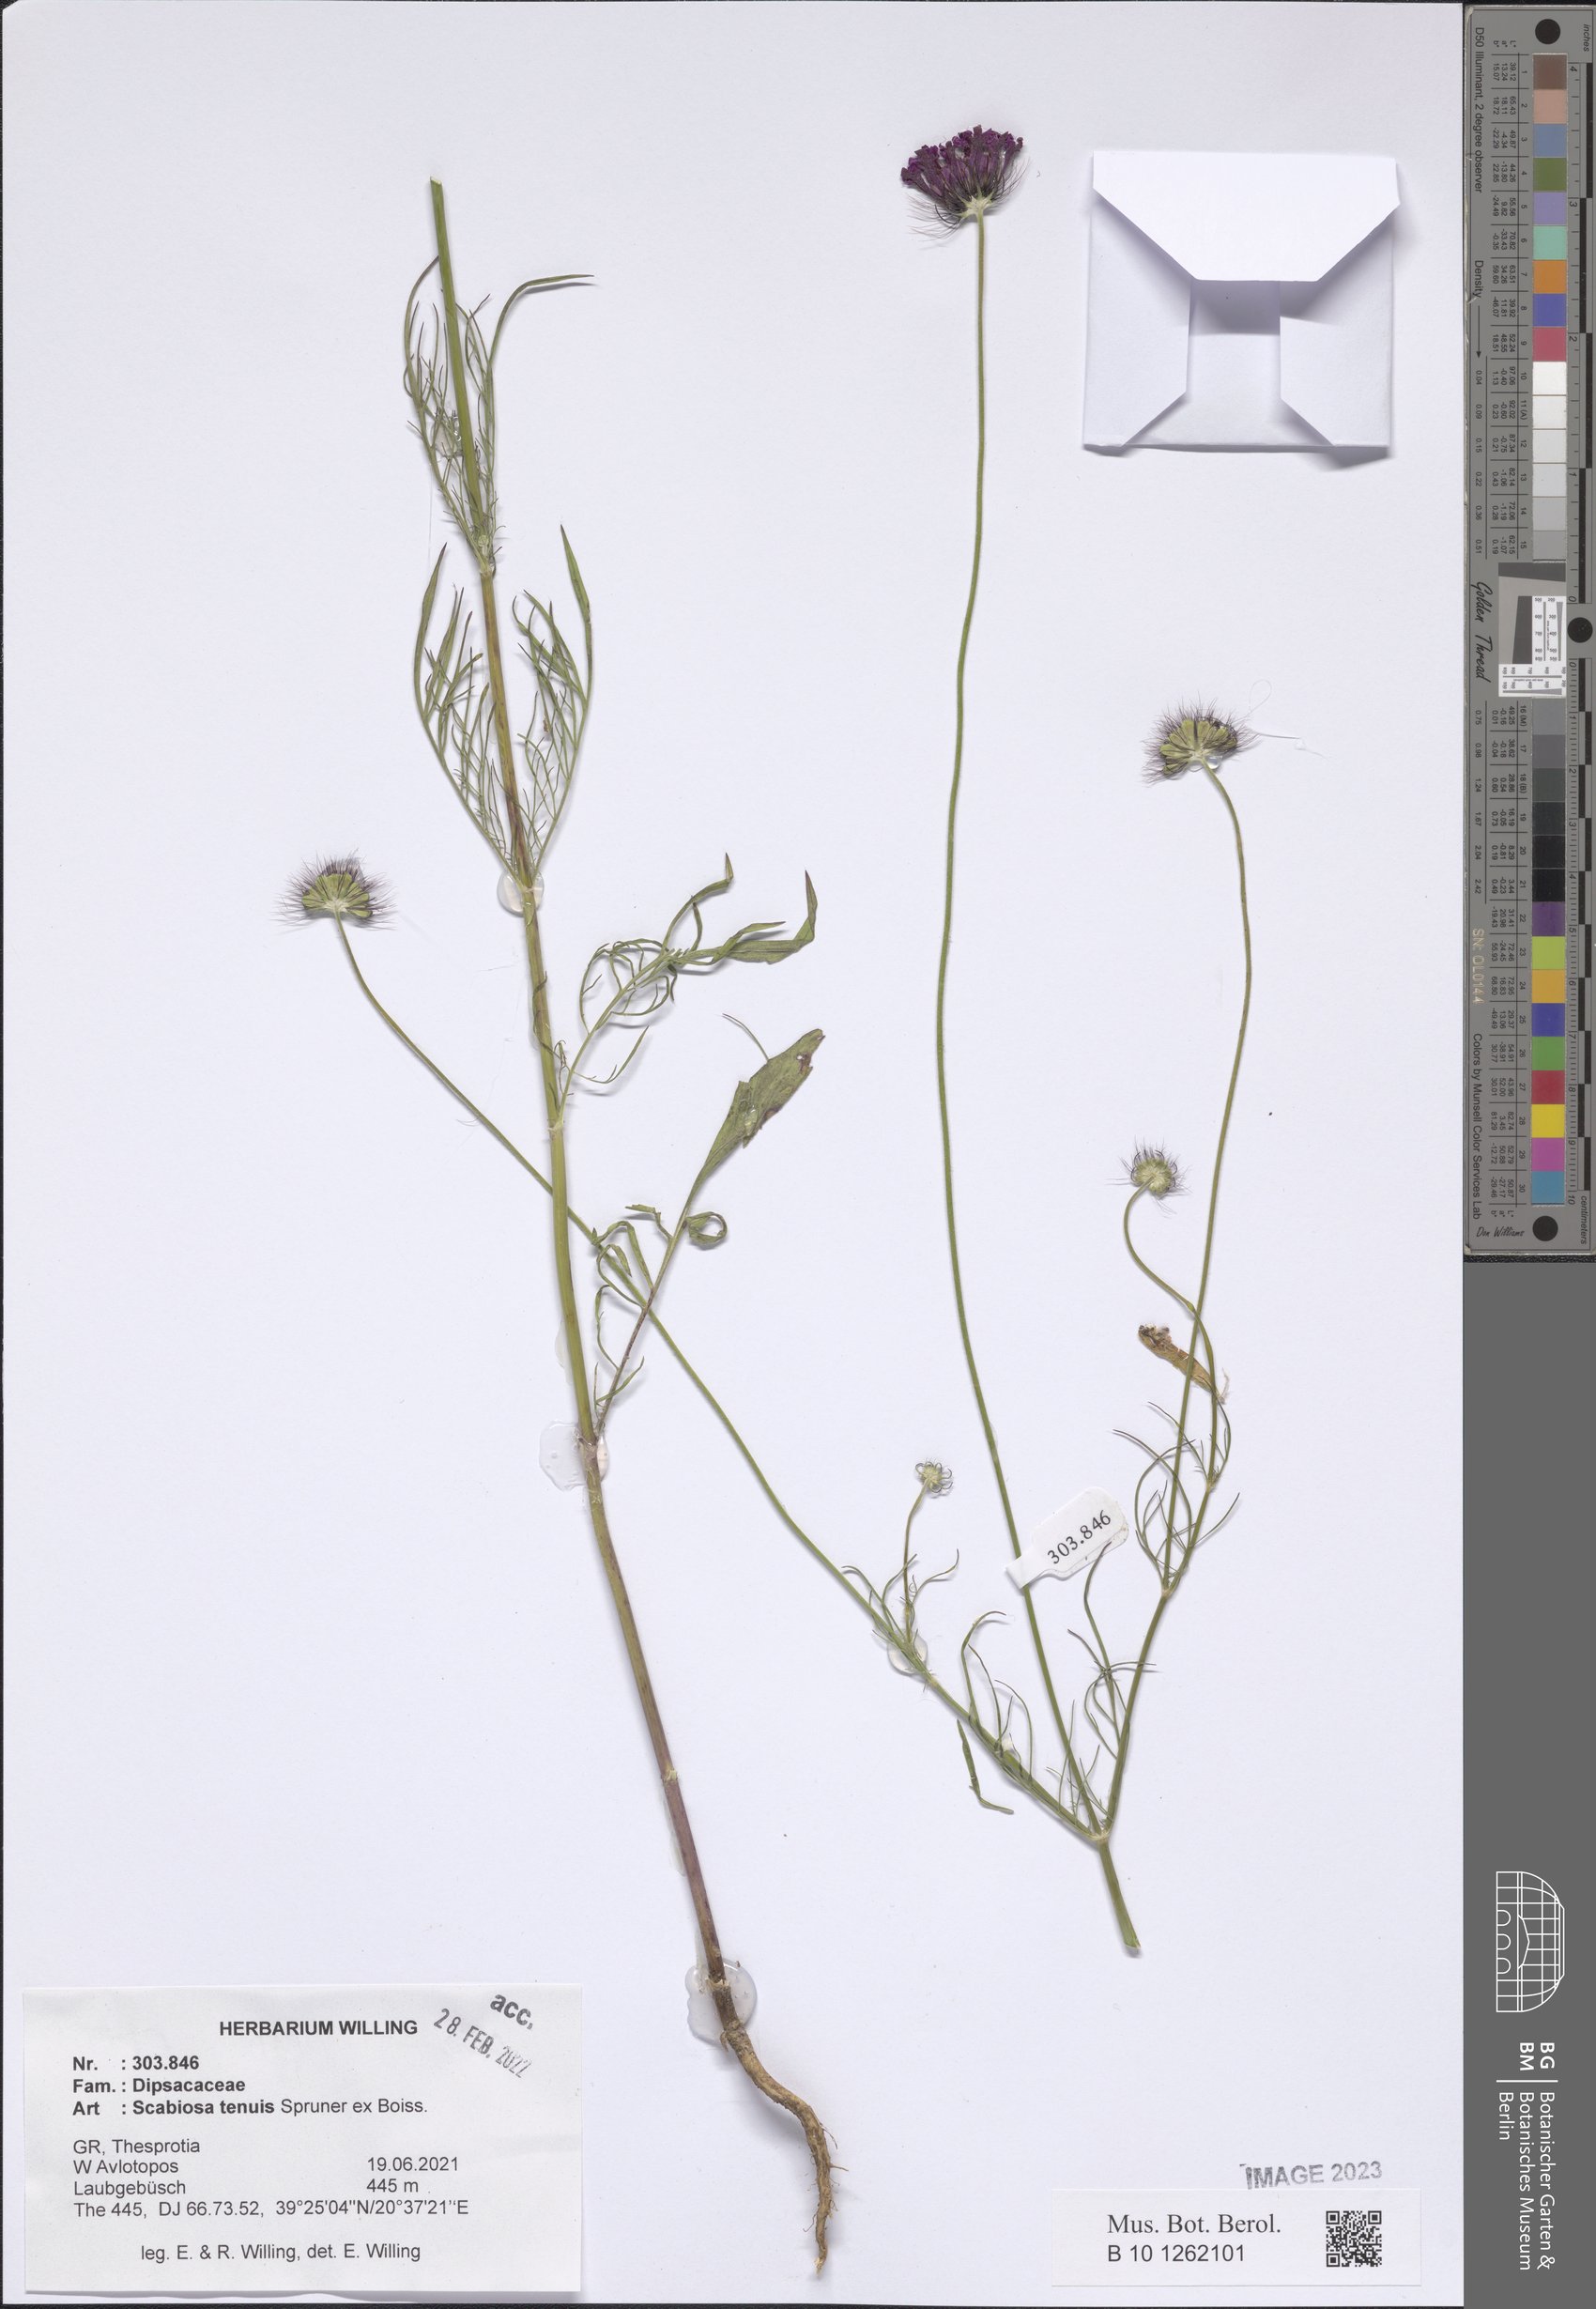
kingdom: Plantae
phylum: Tracheophyta
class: Magnoliopsida
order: Dipsacales
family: Caprifoliaceae
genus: Scabiosa
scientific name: Scabiosa tenuis
